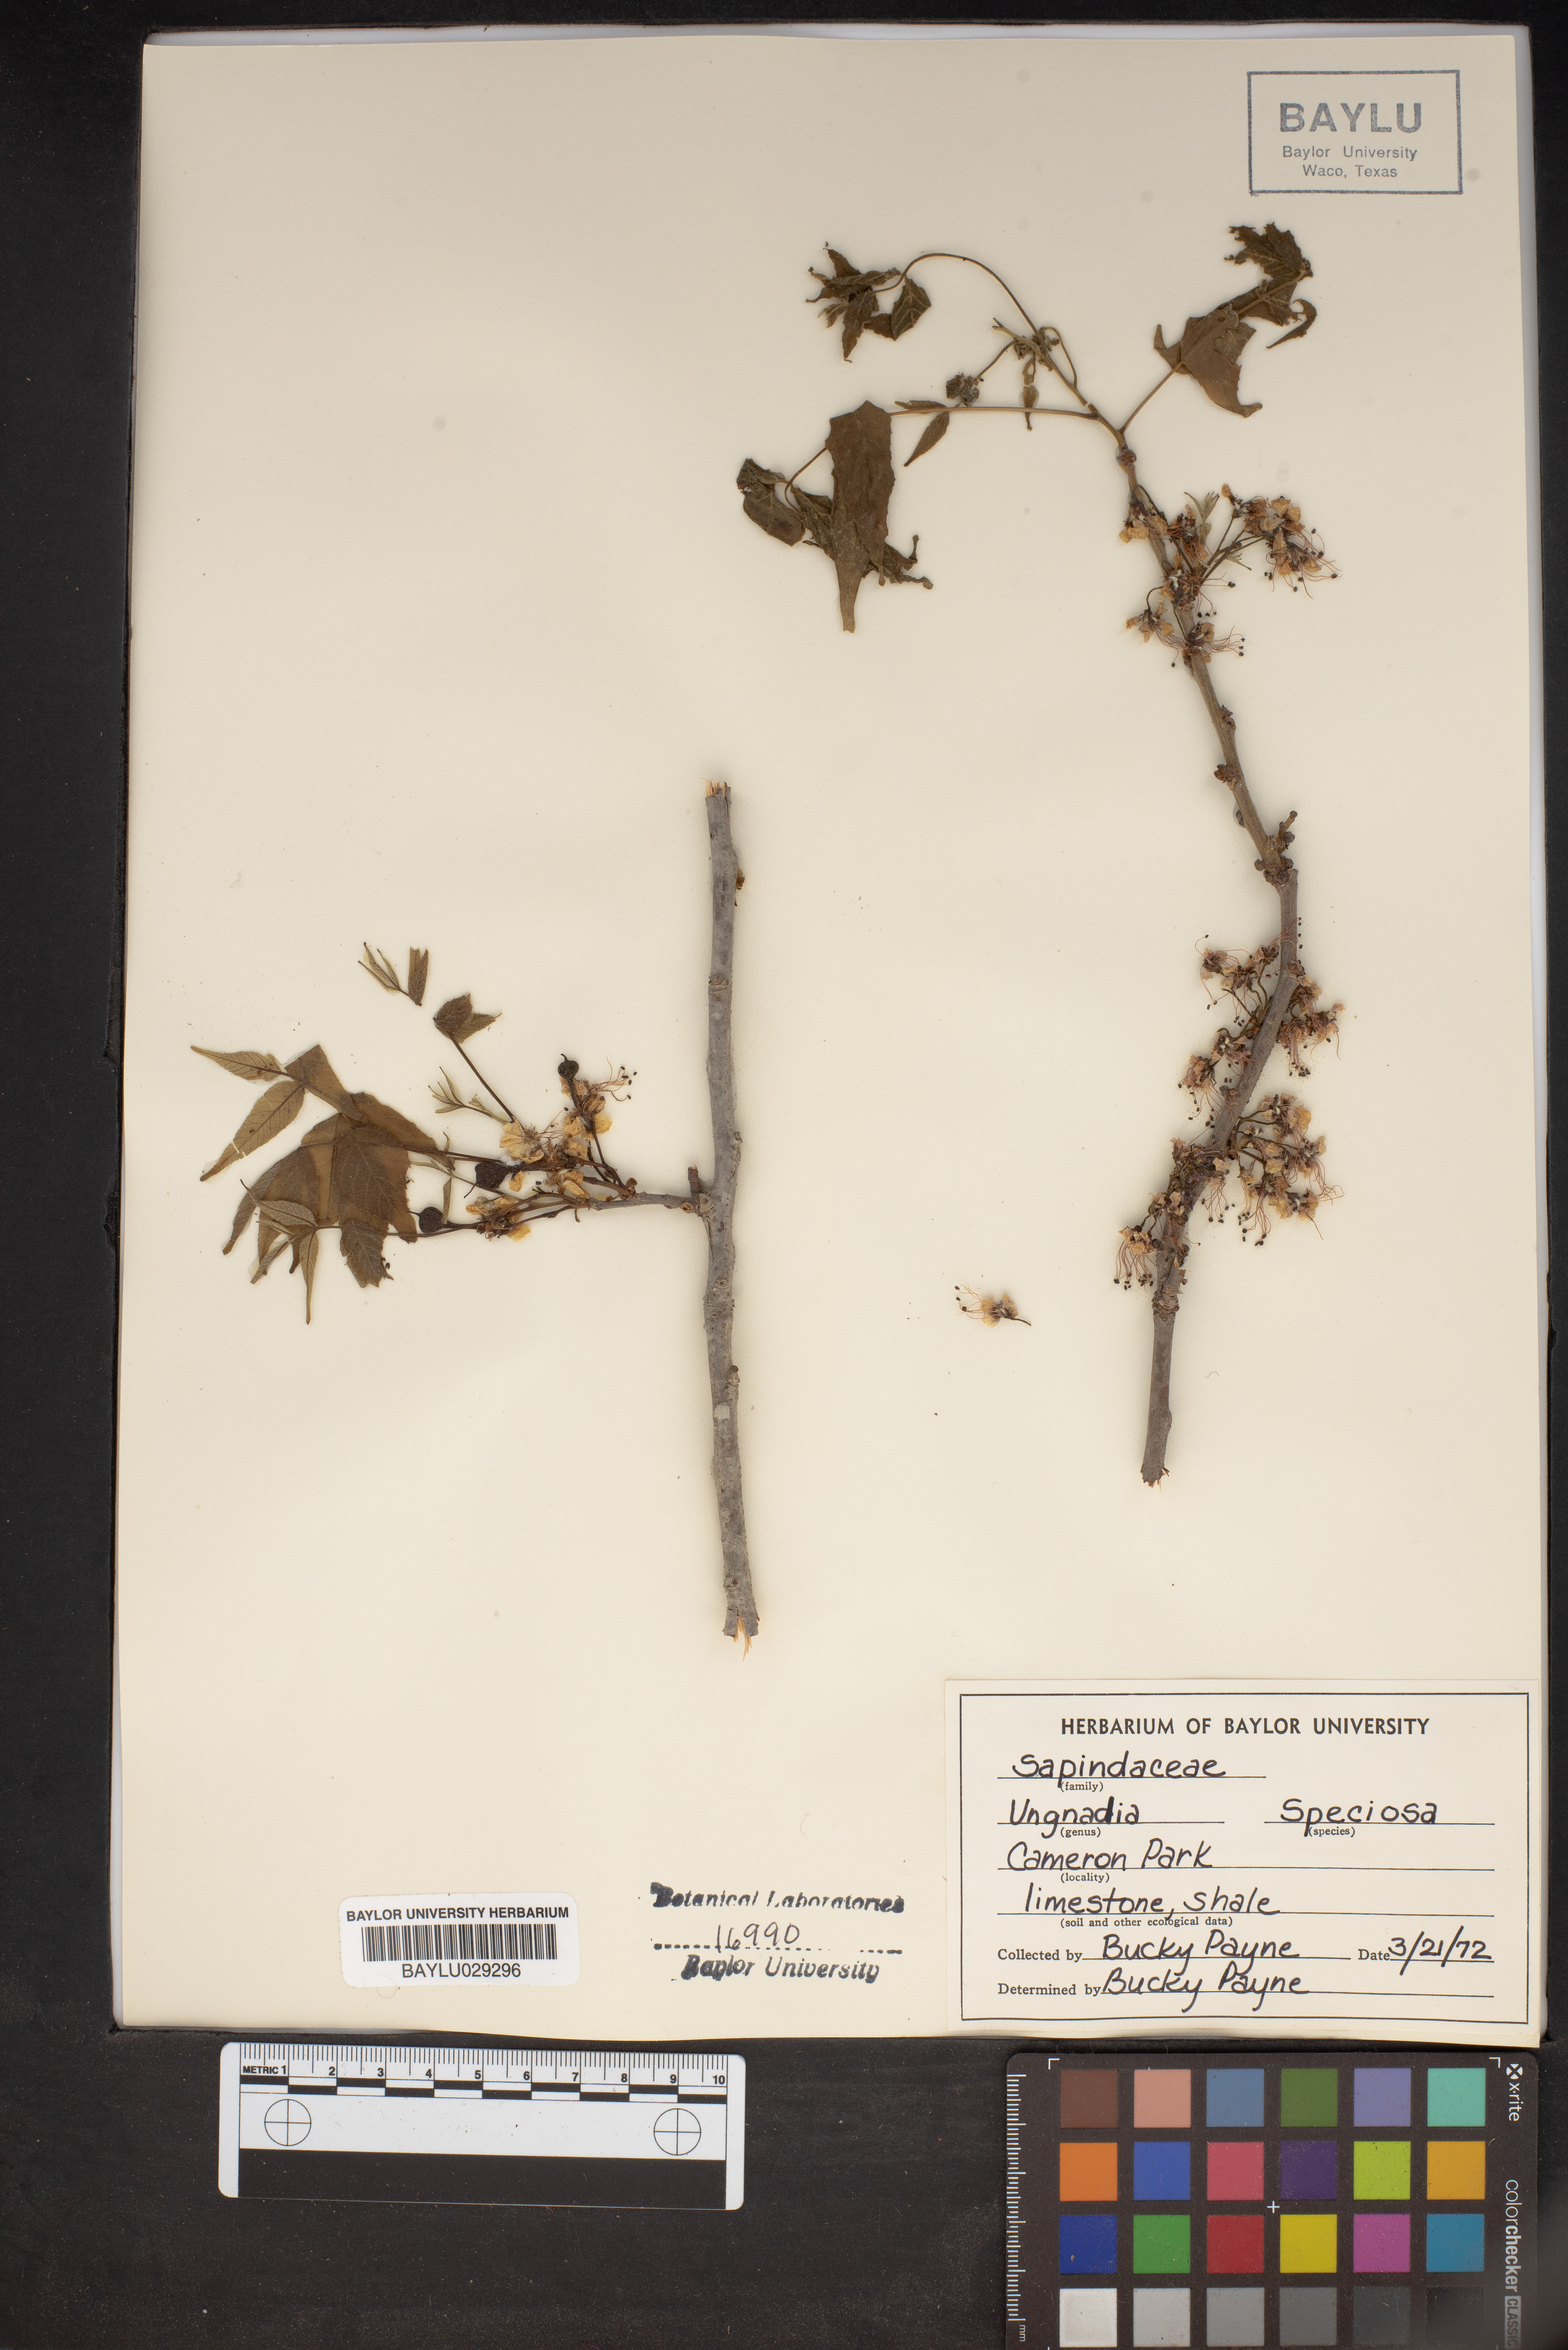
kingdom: Plantae
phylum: Tracheophyta
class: Magnoliopsida
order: Sapindales
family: Sapindaceae
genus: Ungnadia
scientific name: Ungnadia speciosa
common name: Texas-buckeye
